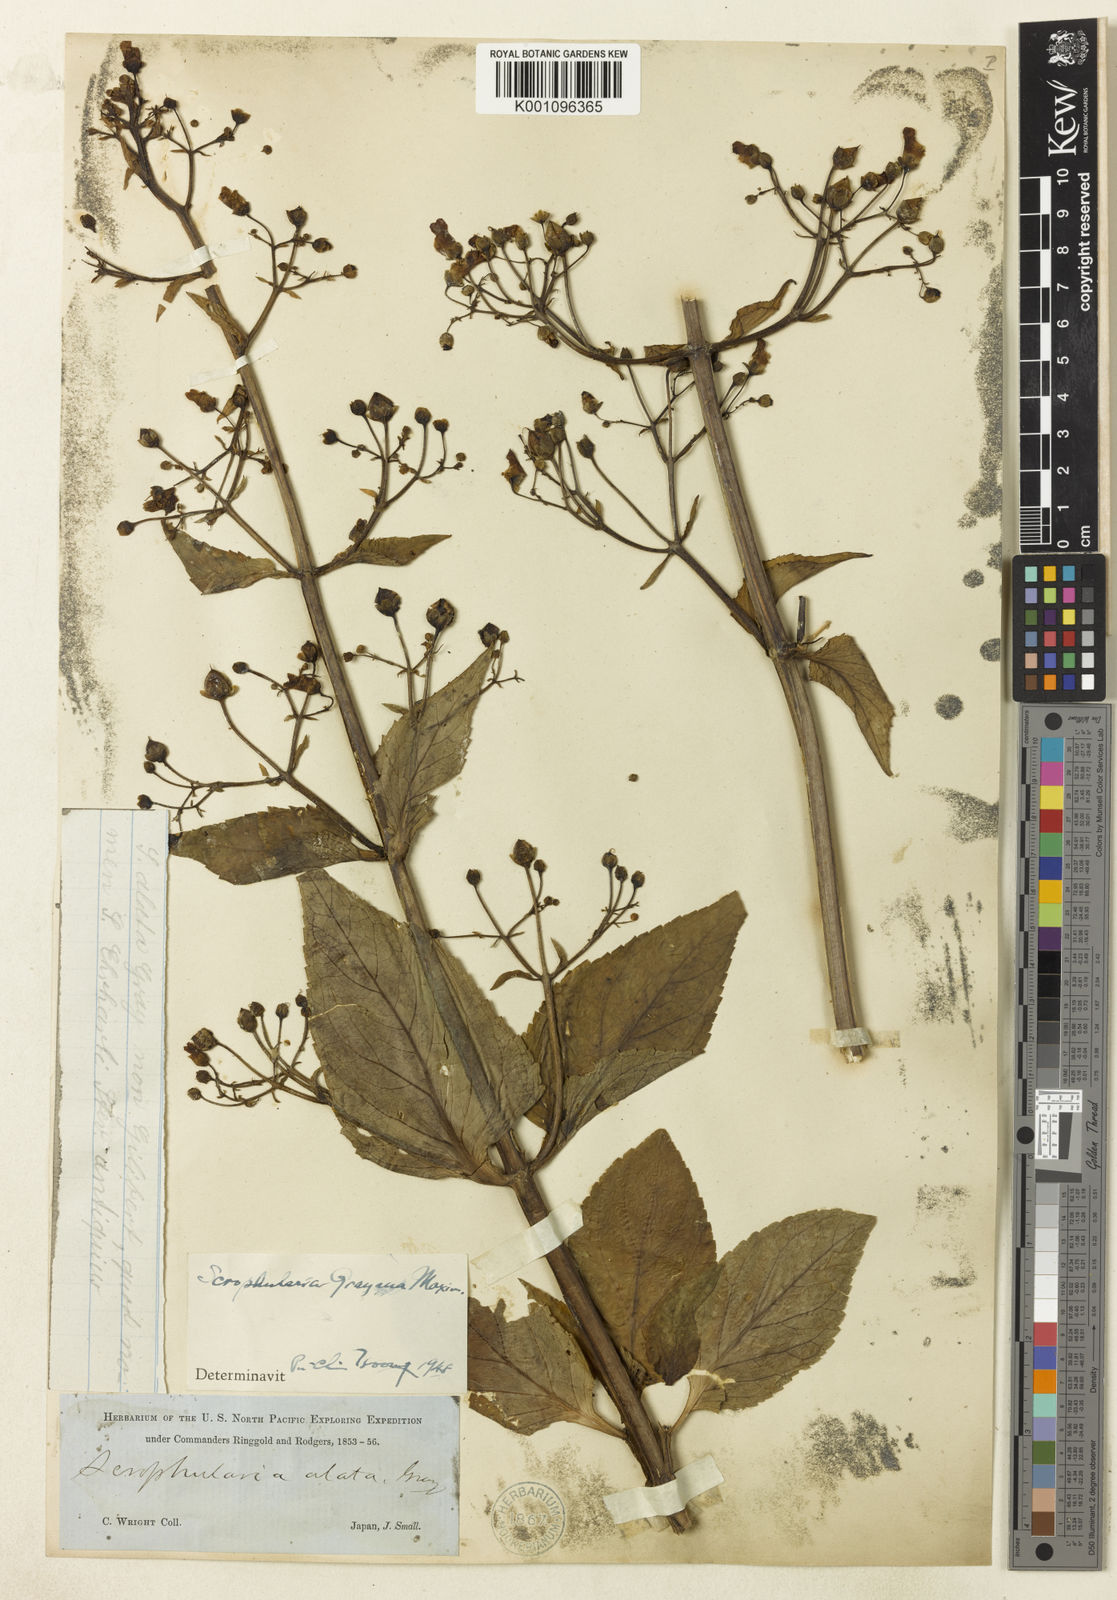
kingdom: Plantae
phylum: Tracheophyta
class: Magnoliopsida
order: Lamiales
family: Scrophulariaceae
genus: Scrophularia
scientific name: Scrophularia alata
